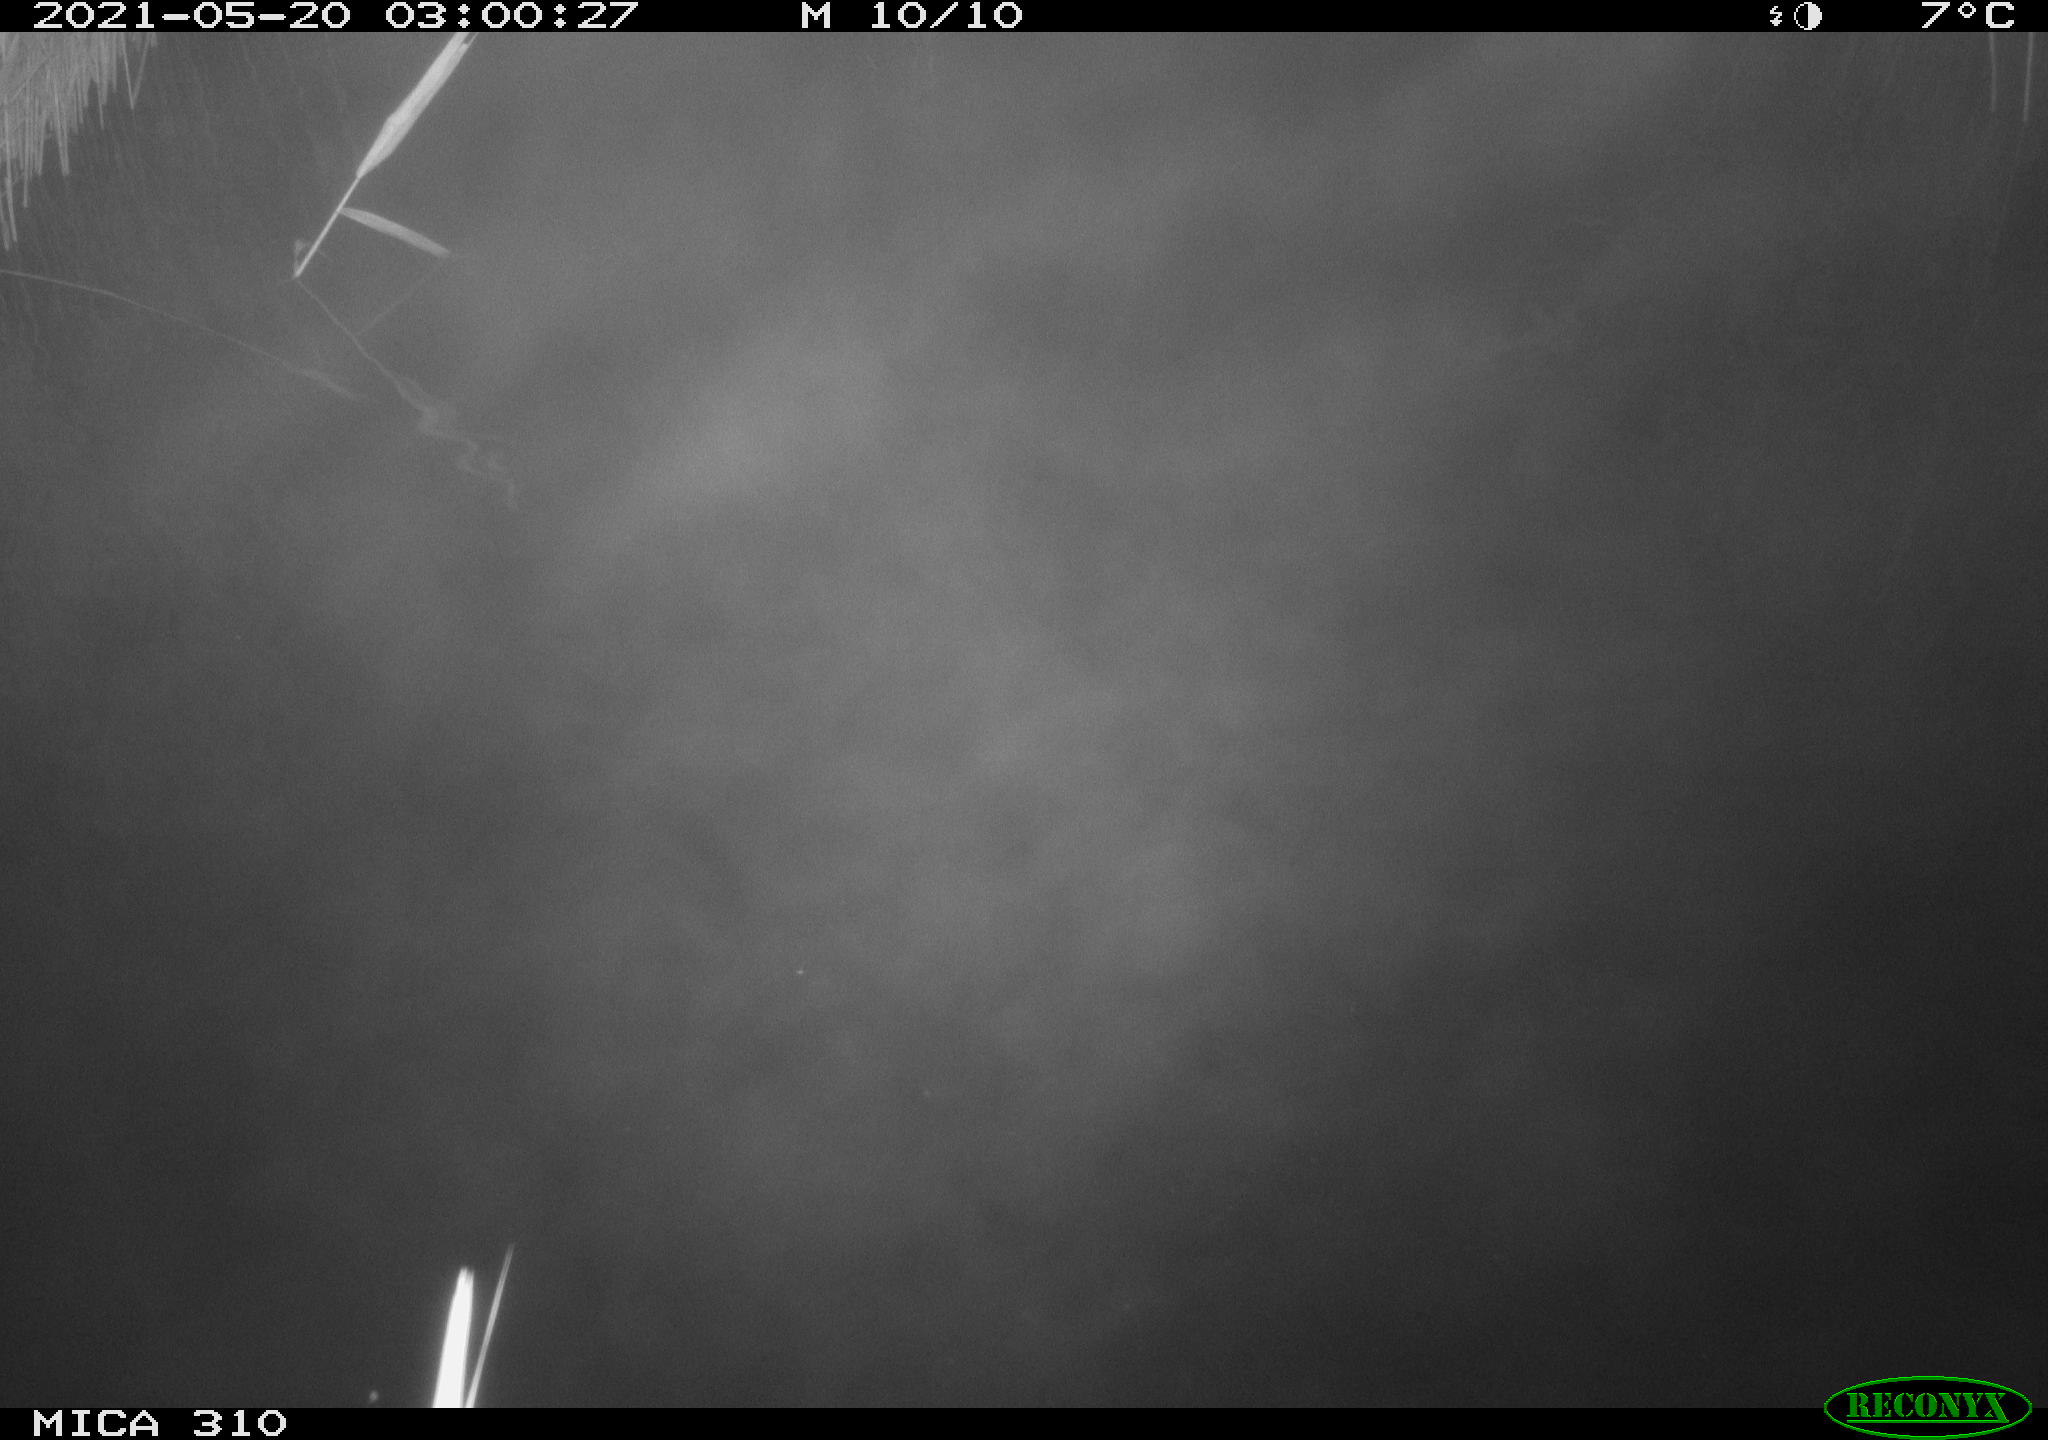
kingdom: Animalia
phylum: Chordata
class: Aves
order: Anseriformes
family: Anatidae
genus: Anas
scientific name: Anas platyrhynchos
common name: Mallard
